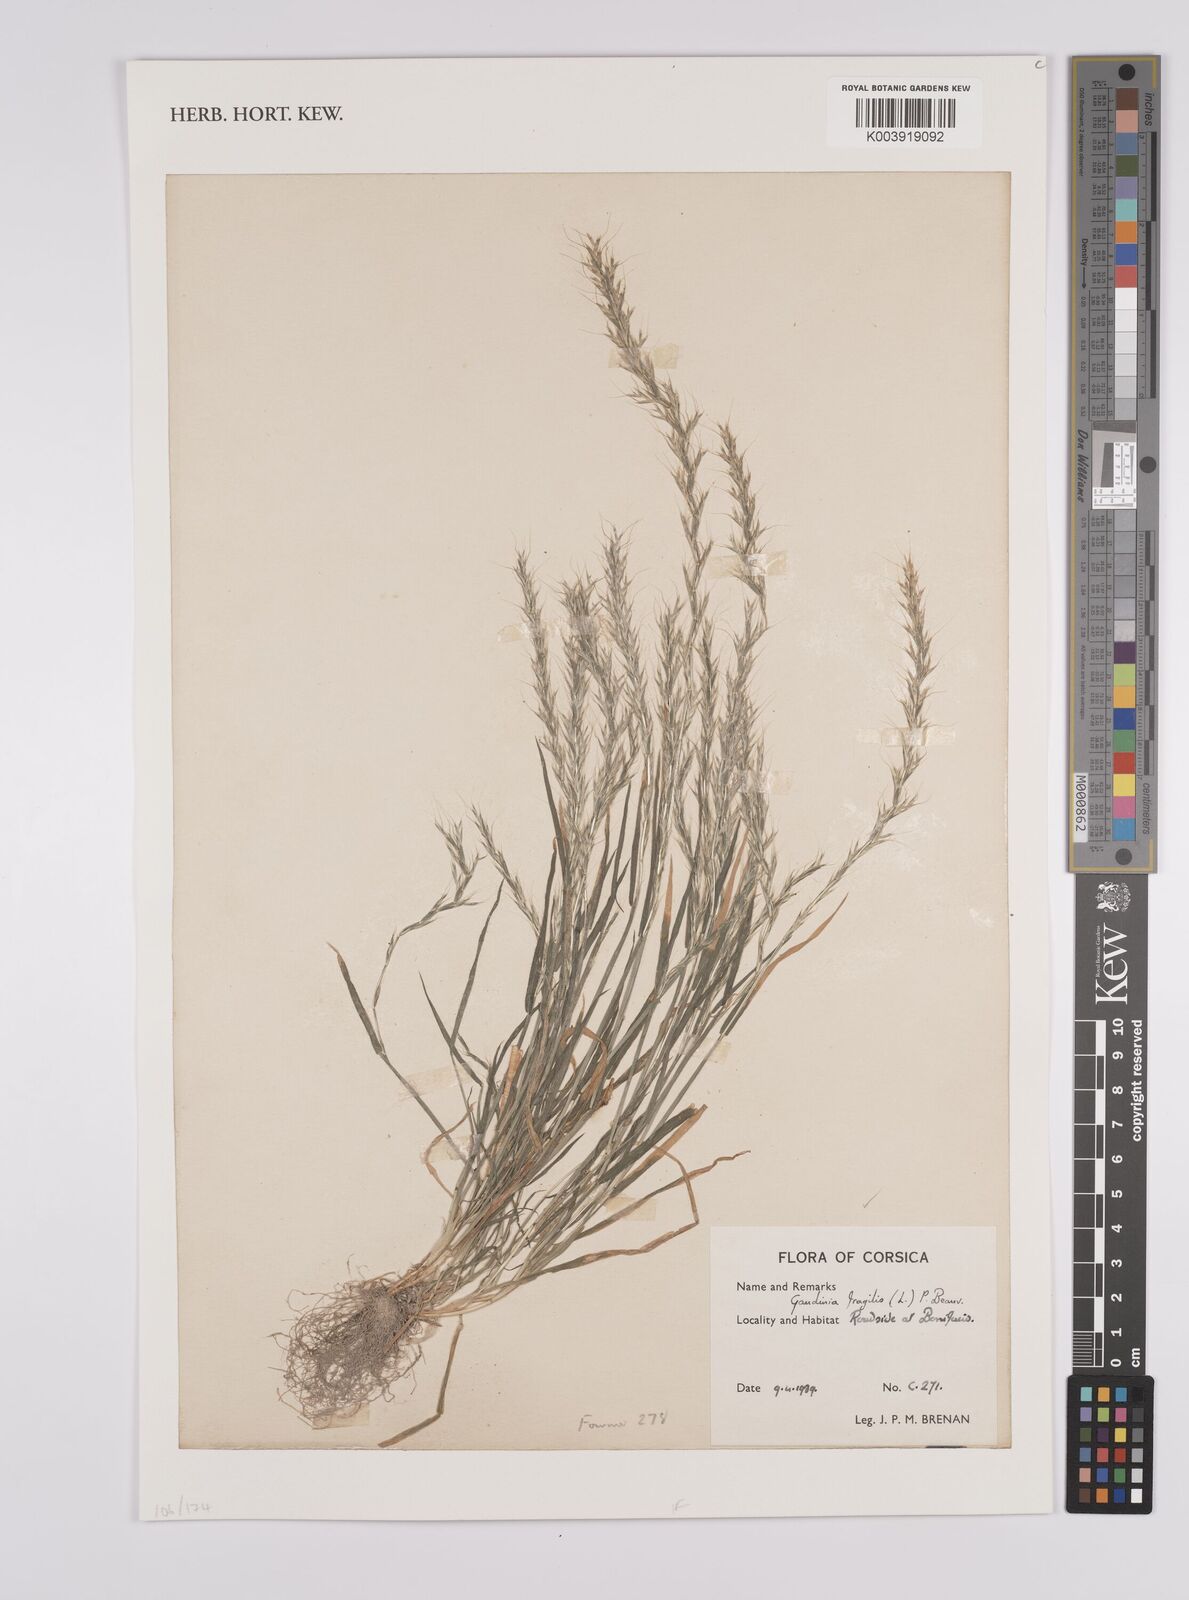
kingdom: Plantae
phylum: Tracheophyta
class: Liliopsida
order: Poales
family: Poaceae
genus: Gaudinia
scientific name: Gaudinia fragilis
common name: French oat-grass
